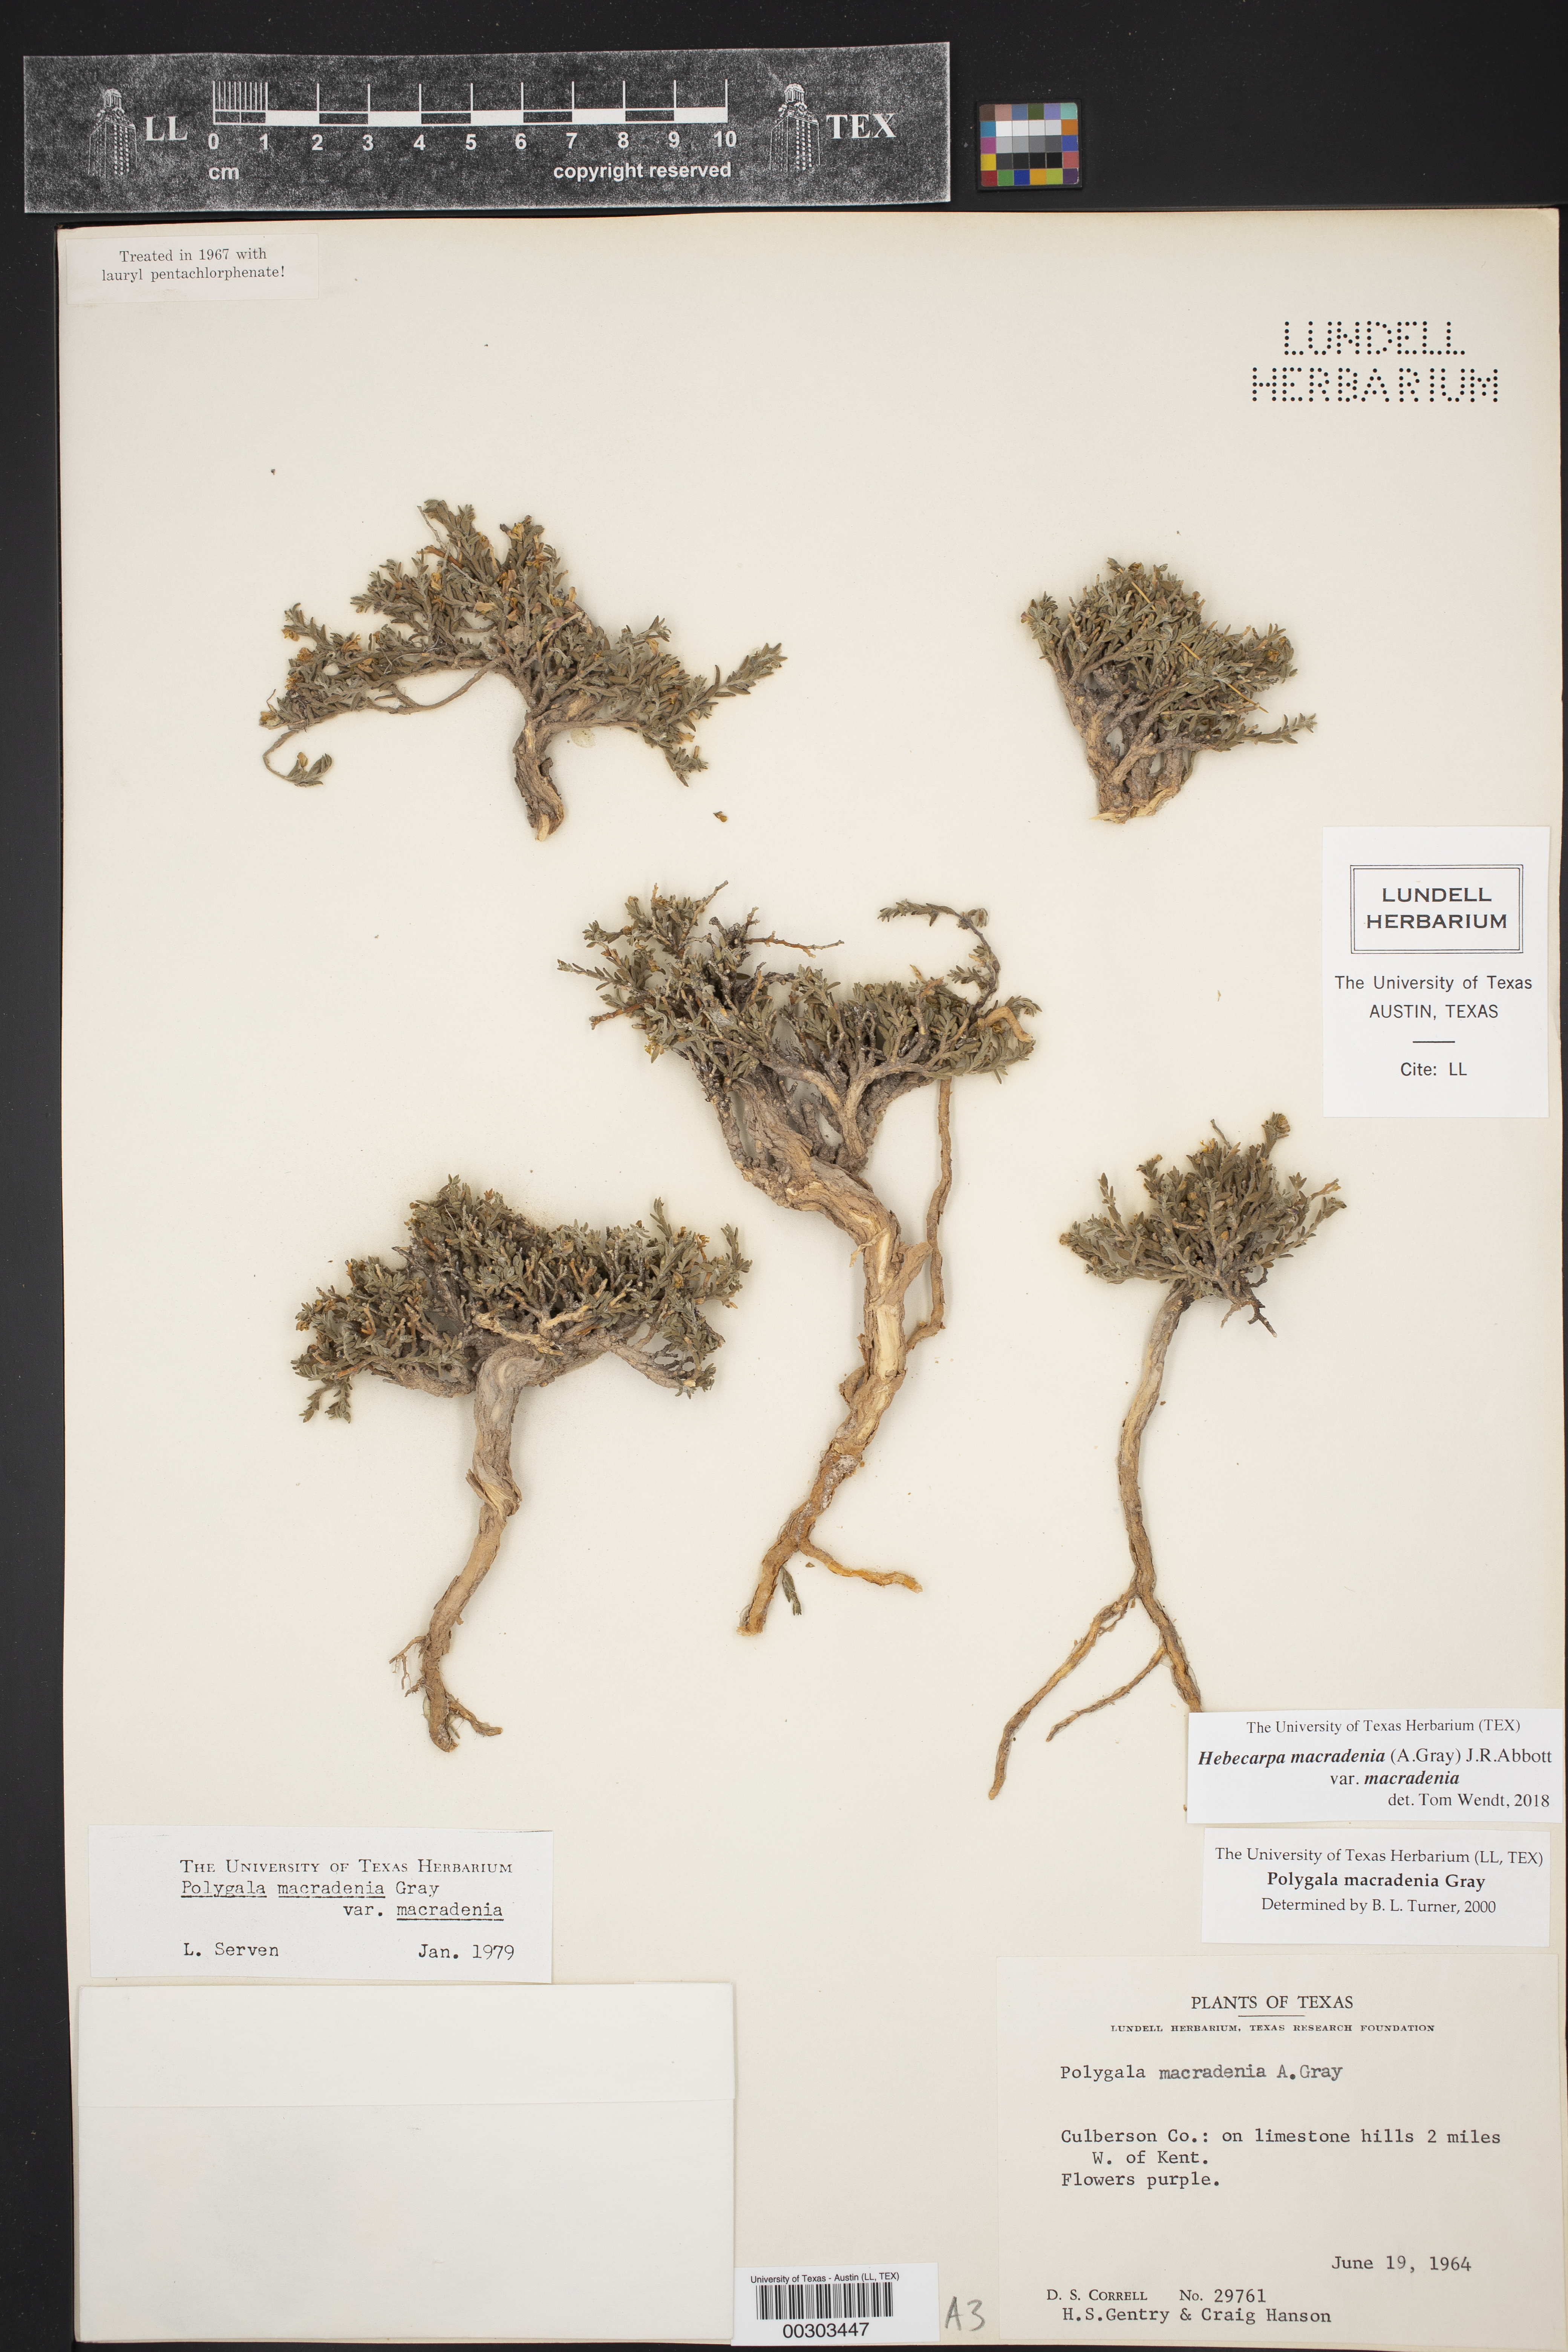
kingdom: Plantae
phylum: Tracheophyta
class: Magnoliopsida
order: Fabales
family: Polygalaceae
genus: Hebecarpa
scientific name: Hebecarpa macradenia
